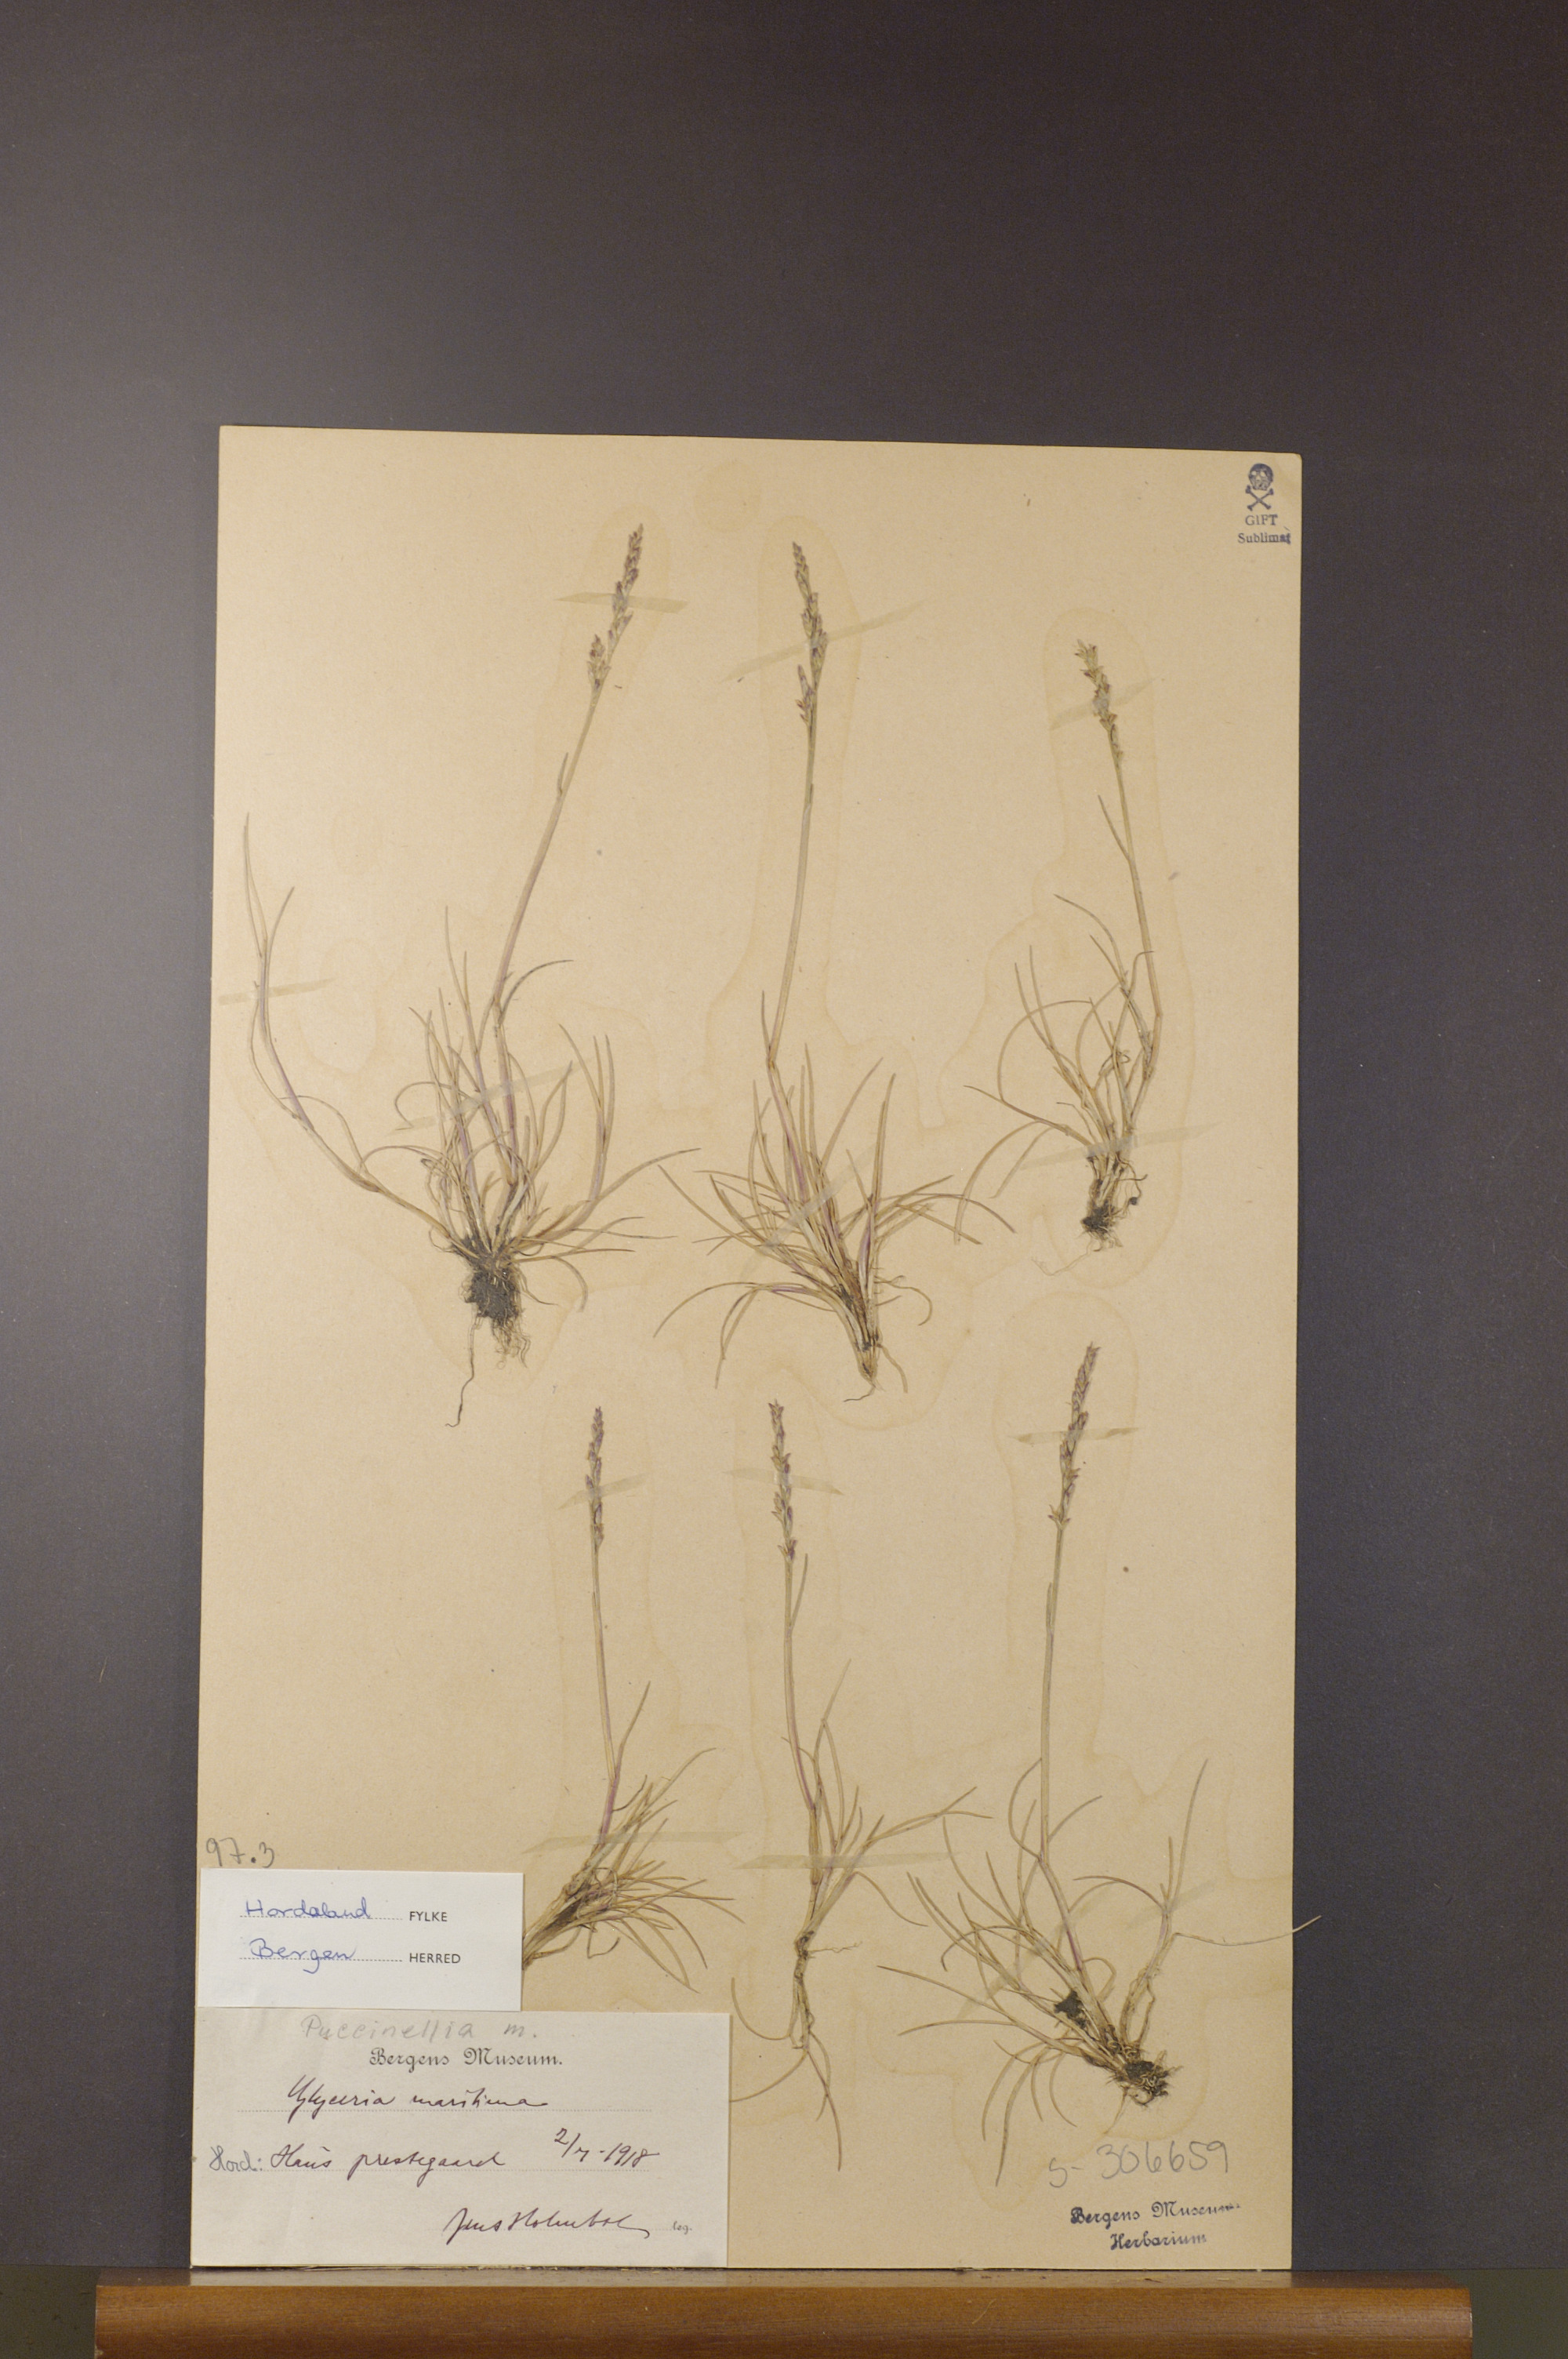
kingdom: Plantae
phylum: Tracheophyta
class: Liliopsida
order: Poales
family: Poaceae
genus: Puccinellia
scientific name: Puccinellia maritima
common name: Common saltmarsh grass
